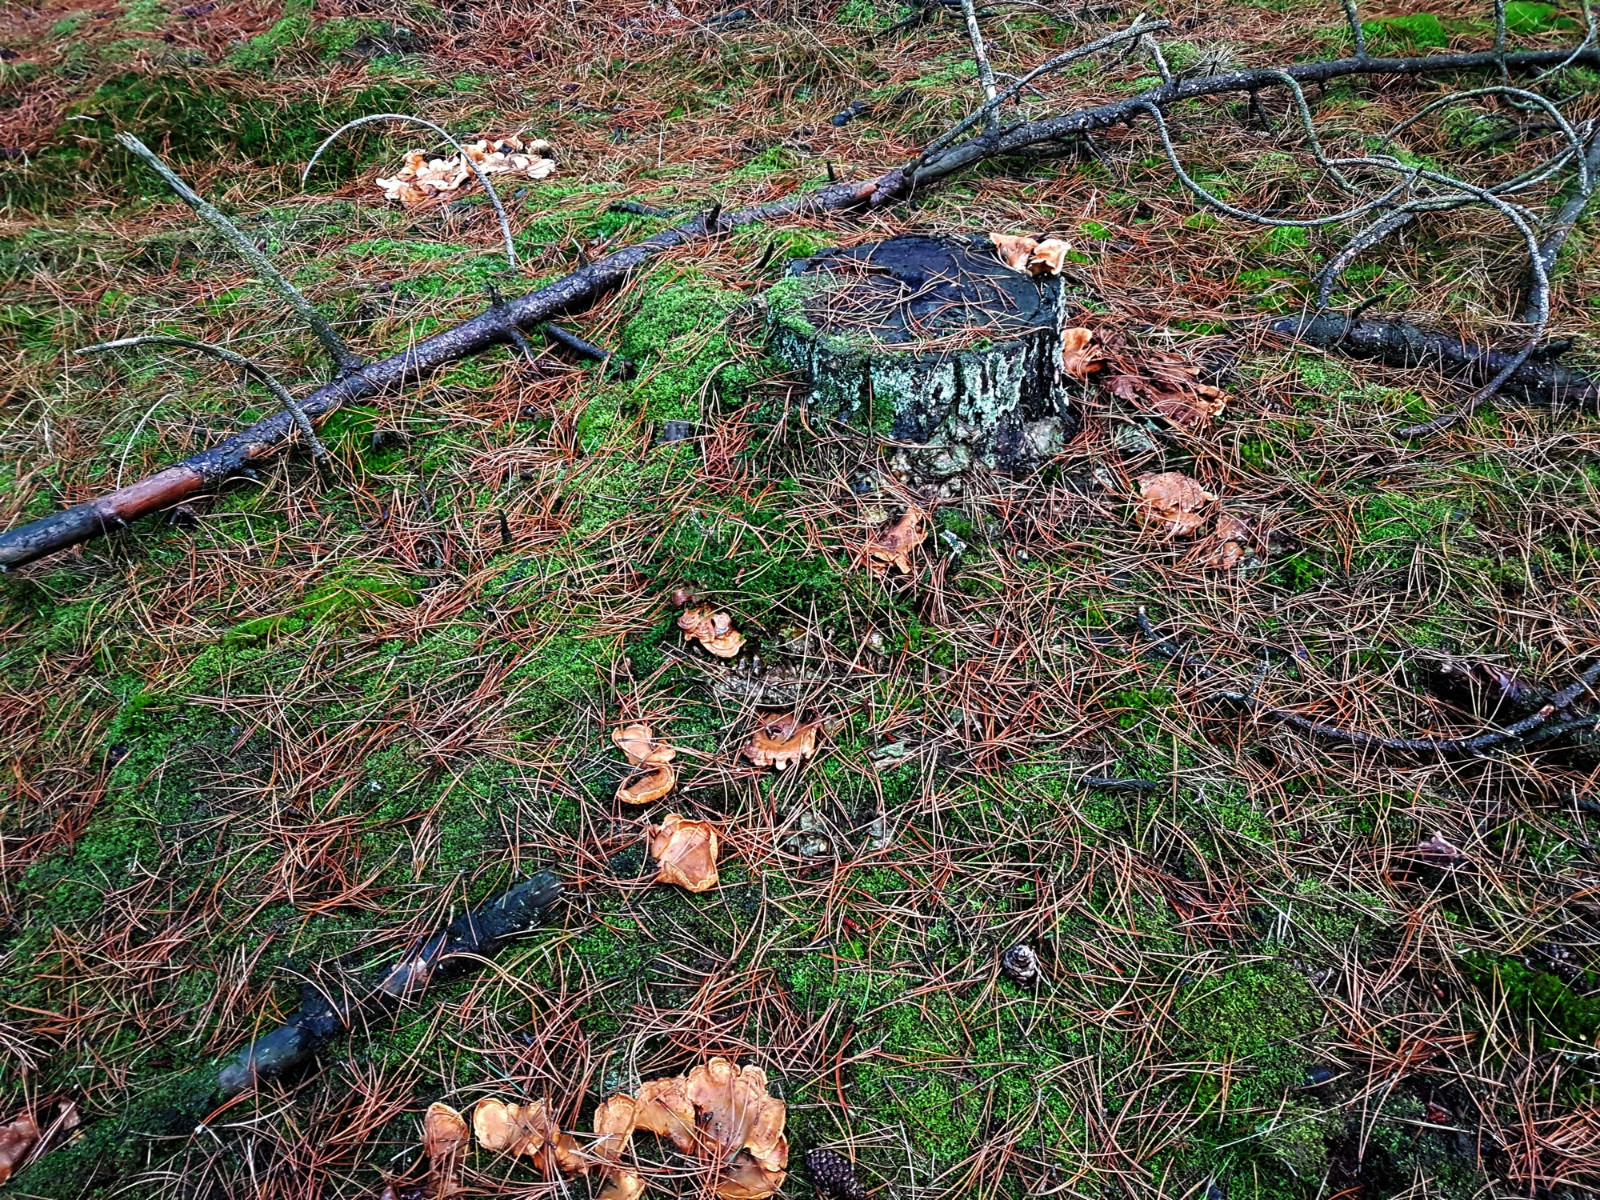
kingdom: Fungi
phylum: Basidiomycota
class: Agaricomycetes
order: Boletales
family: Tapinellaceae
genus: Tapinella
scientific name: Tapinella panuoides
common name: tømmer-viftesvamp
